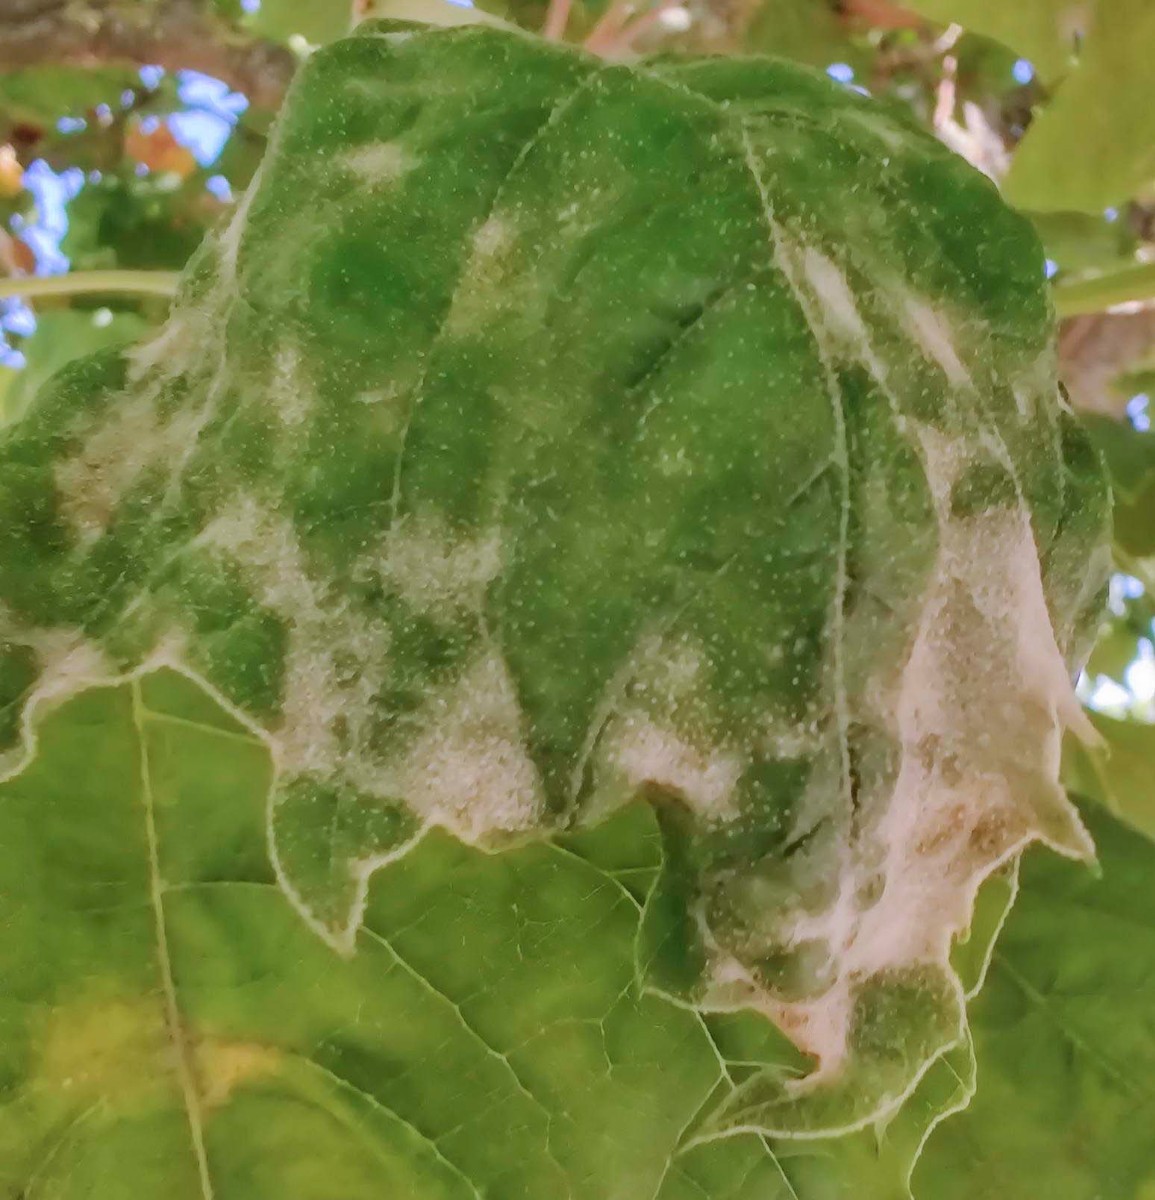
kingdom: Fungi
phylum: Ascomycota
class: Leotiomycetes
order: Helotiales
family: Erysiphaceae
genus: Erysiphe
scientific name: Erysiphe platani
